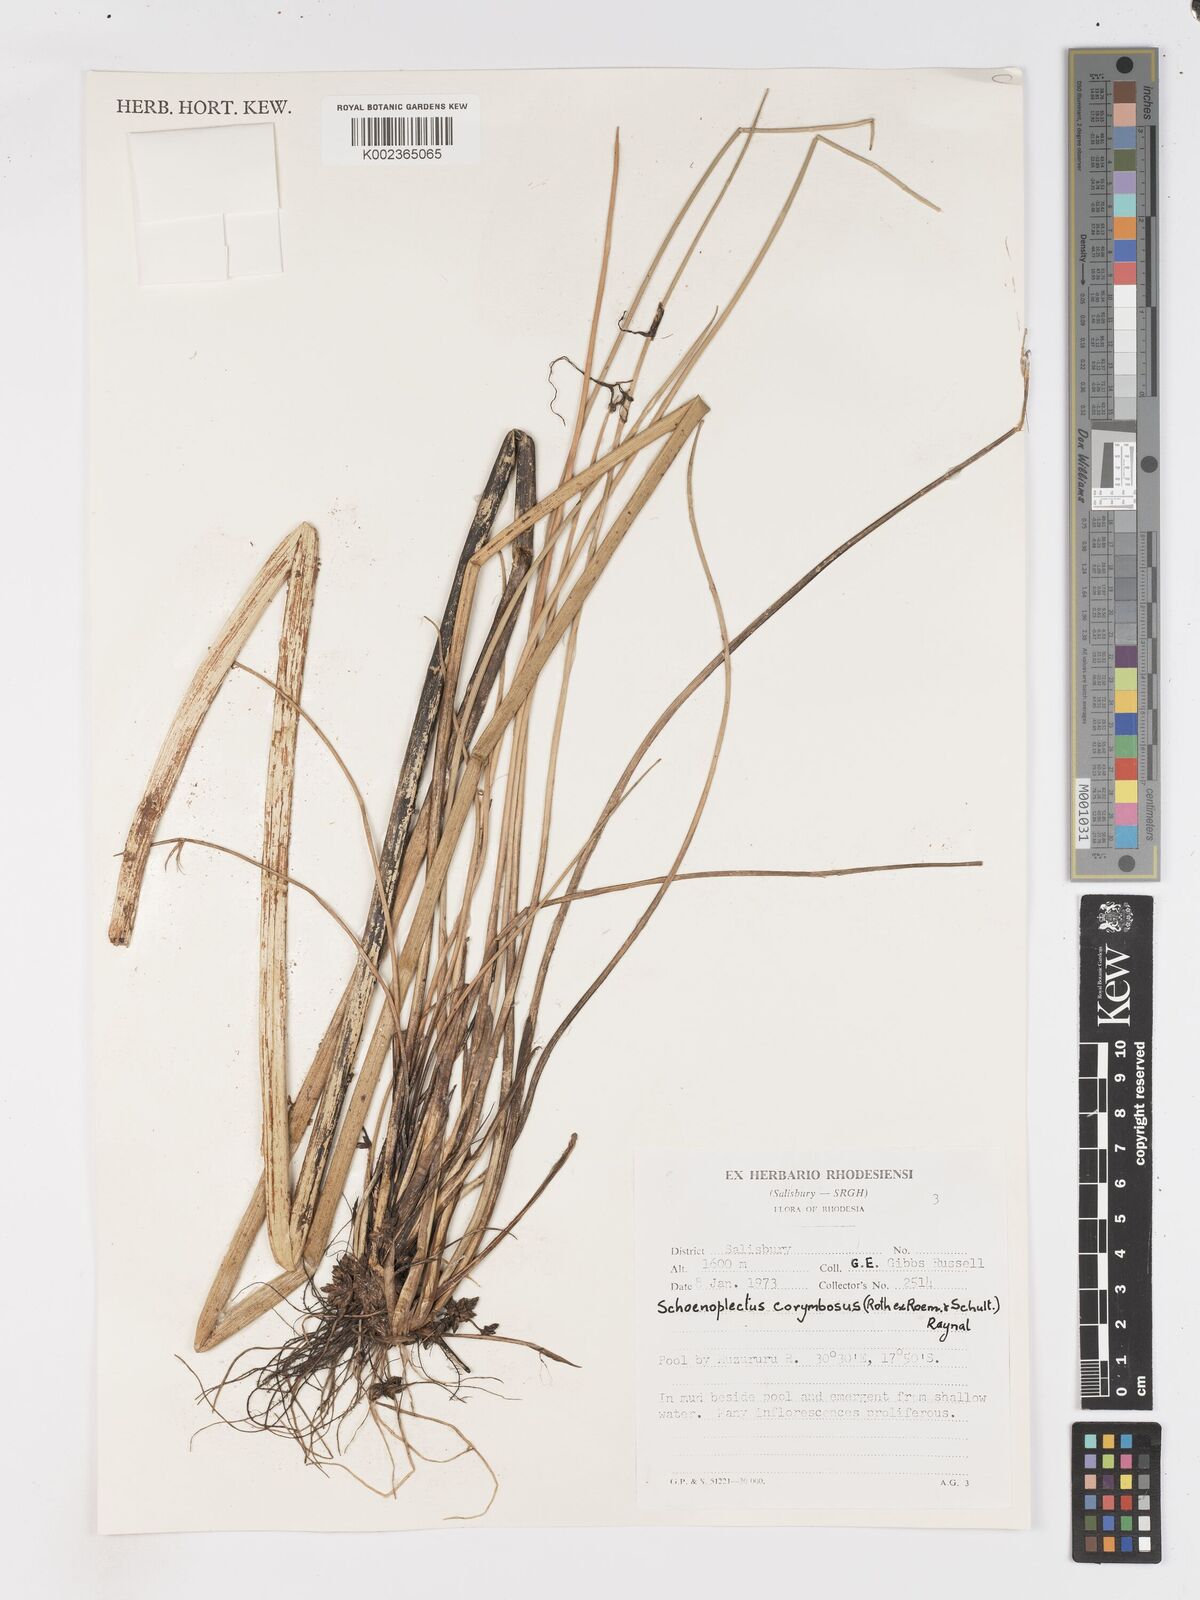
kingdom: Plantae
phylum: Tracheophyta
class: Liliopsida
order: Poales
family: Cyperaceae
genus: Schoenoplectiella
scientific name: Schoenoplectiella brachyceras
